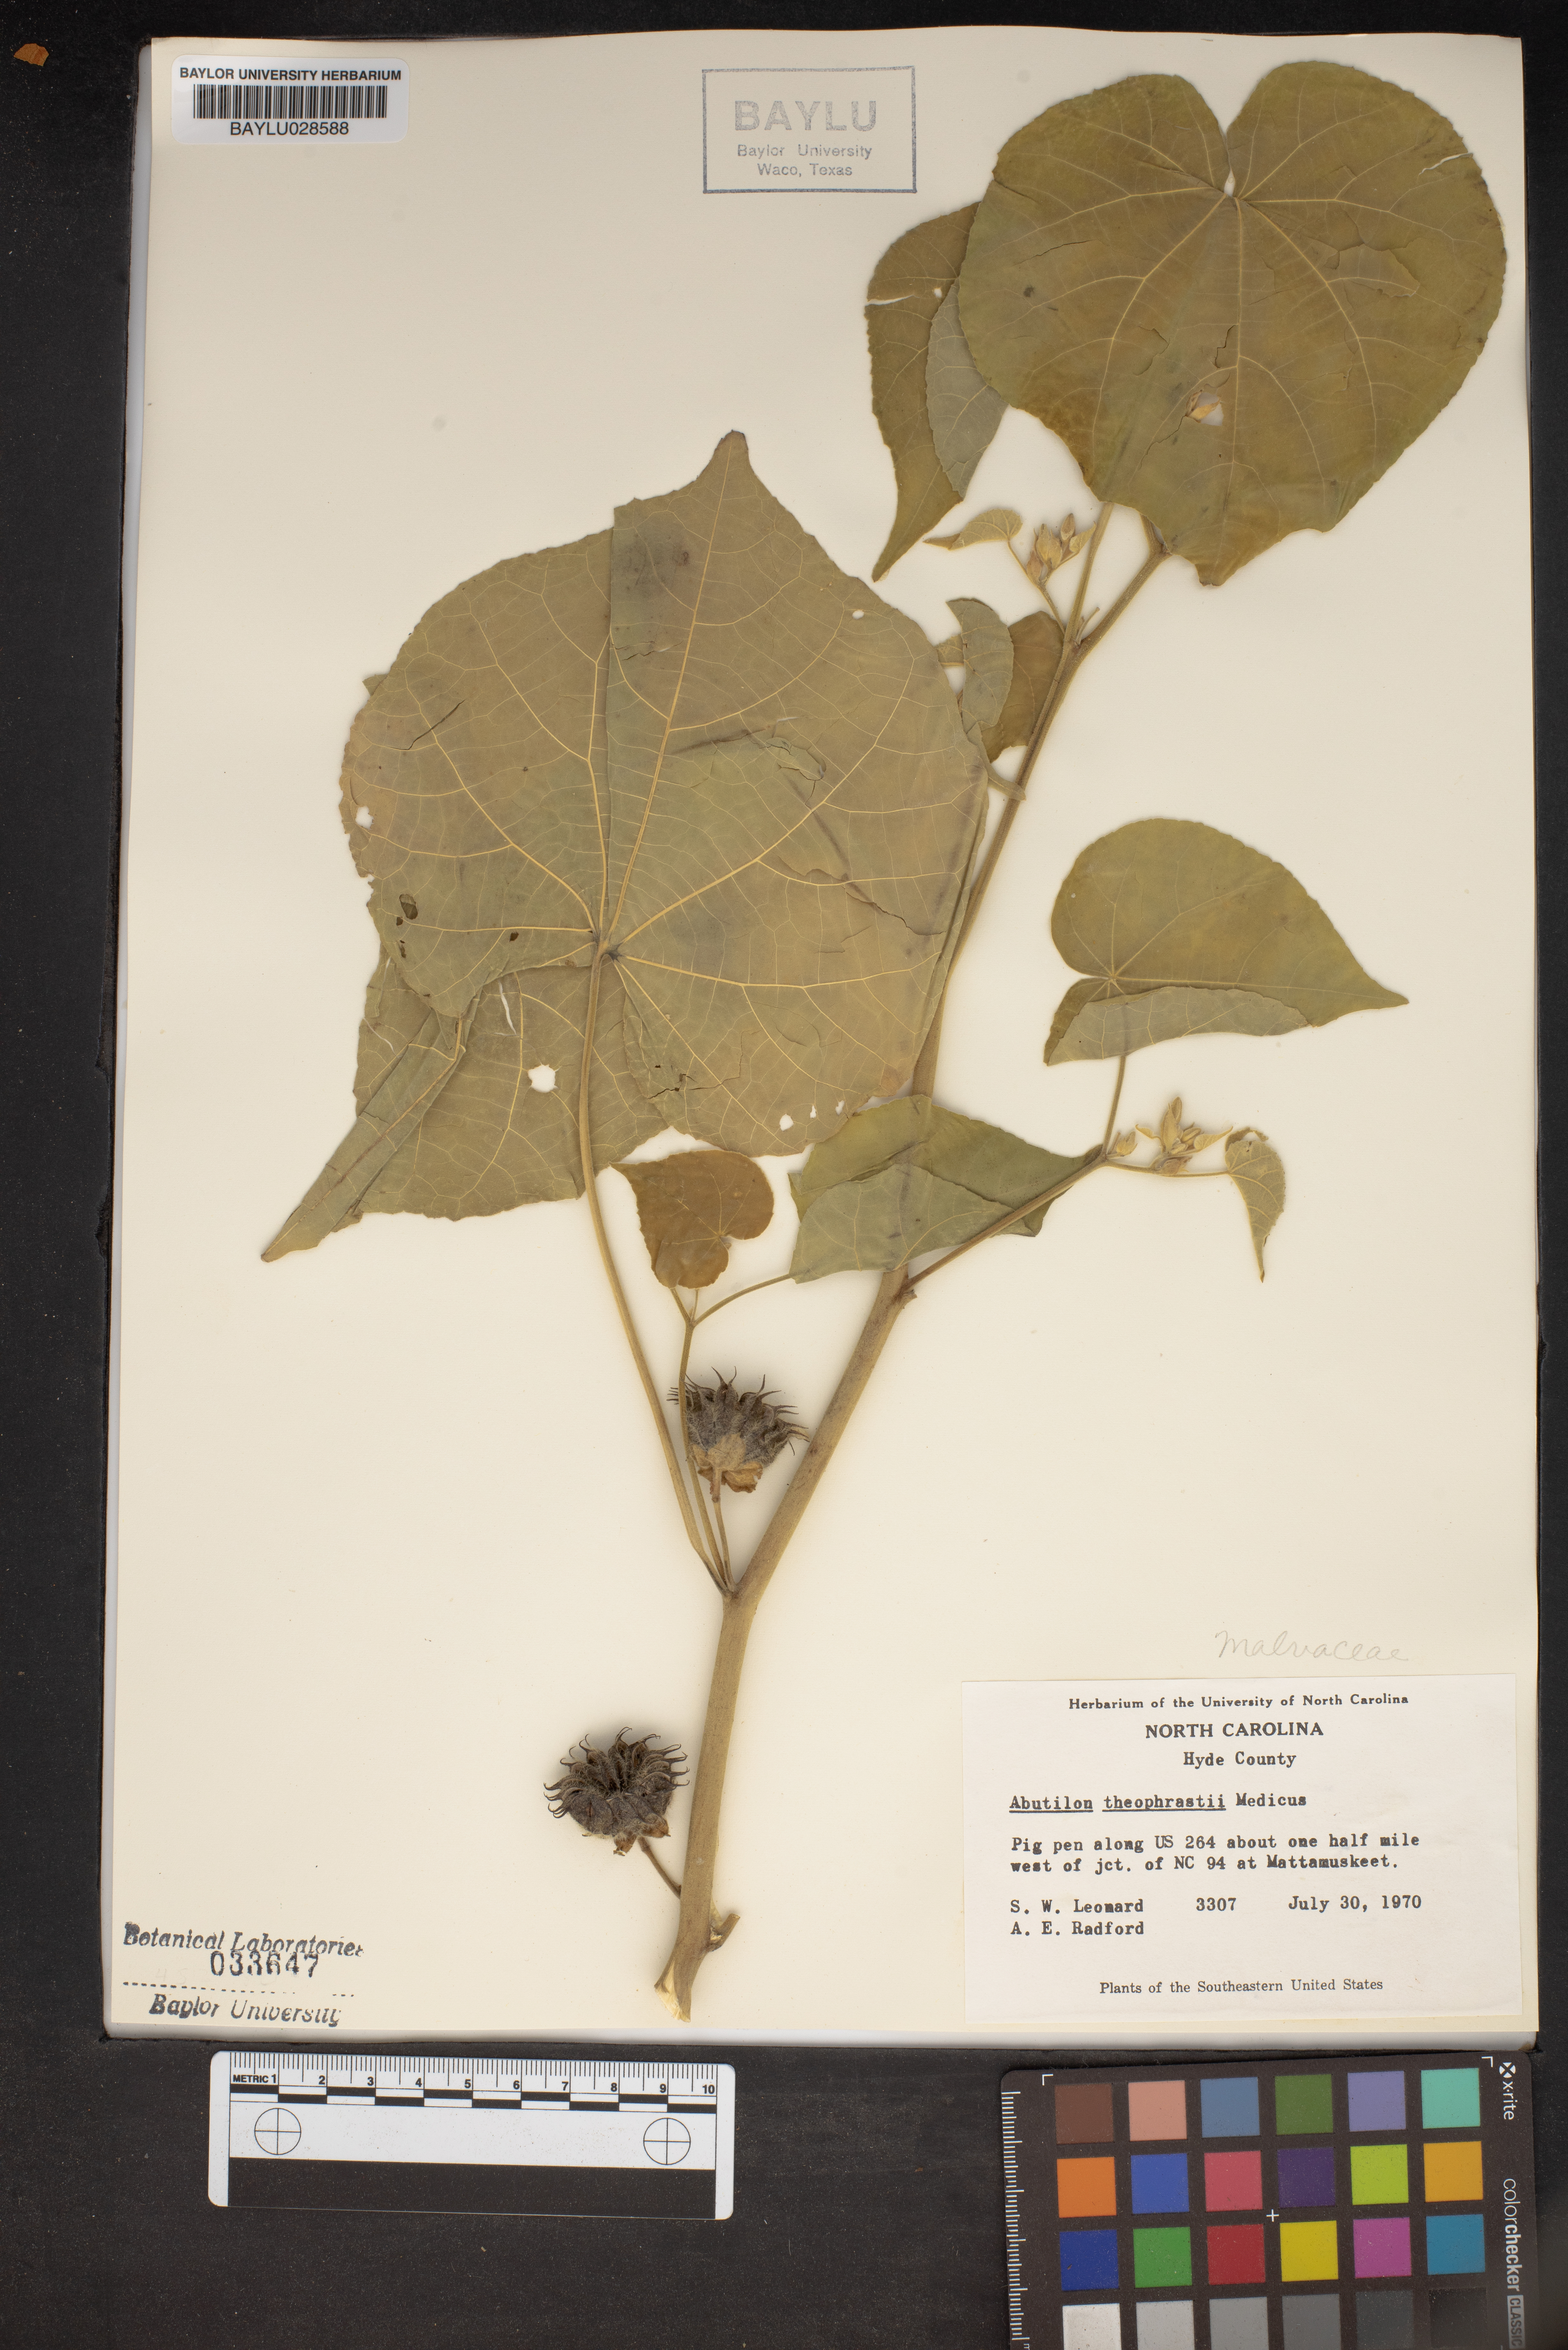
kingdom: Plantae
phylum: Tracheophyta
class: Magnoliopsida
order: Malvales
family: Malvaceae
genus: Abutilon
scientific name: Abutilon theophrasti
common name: Velvetleaf
